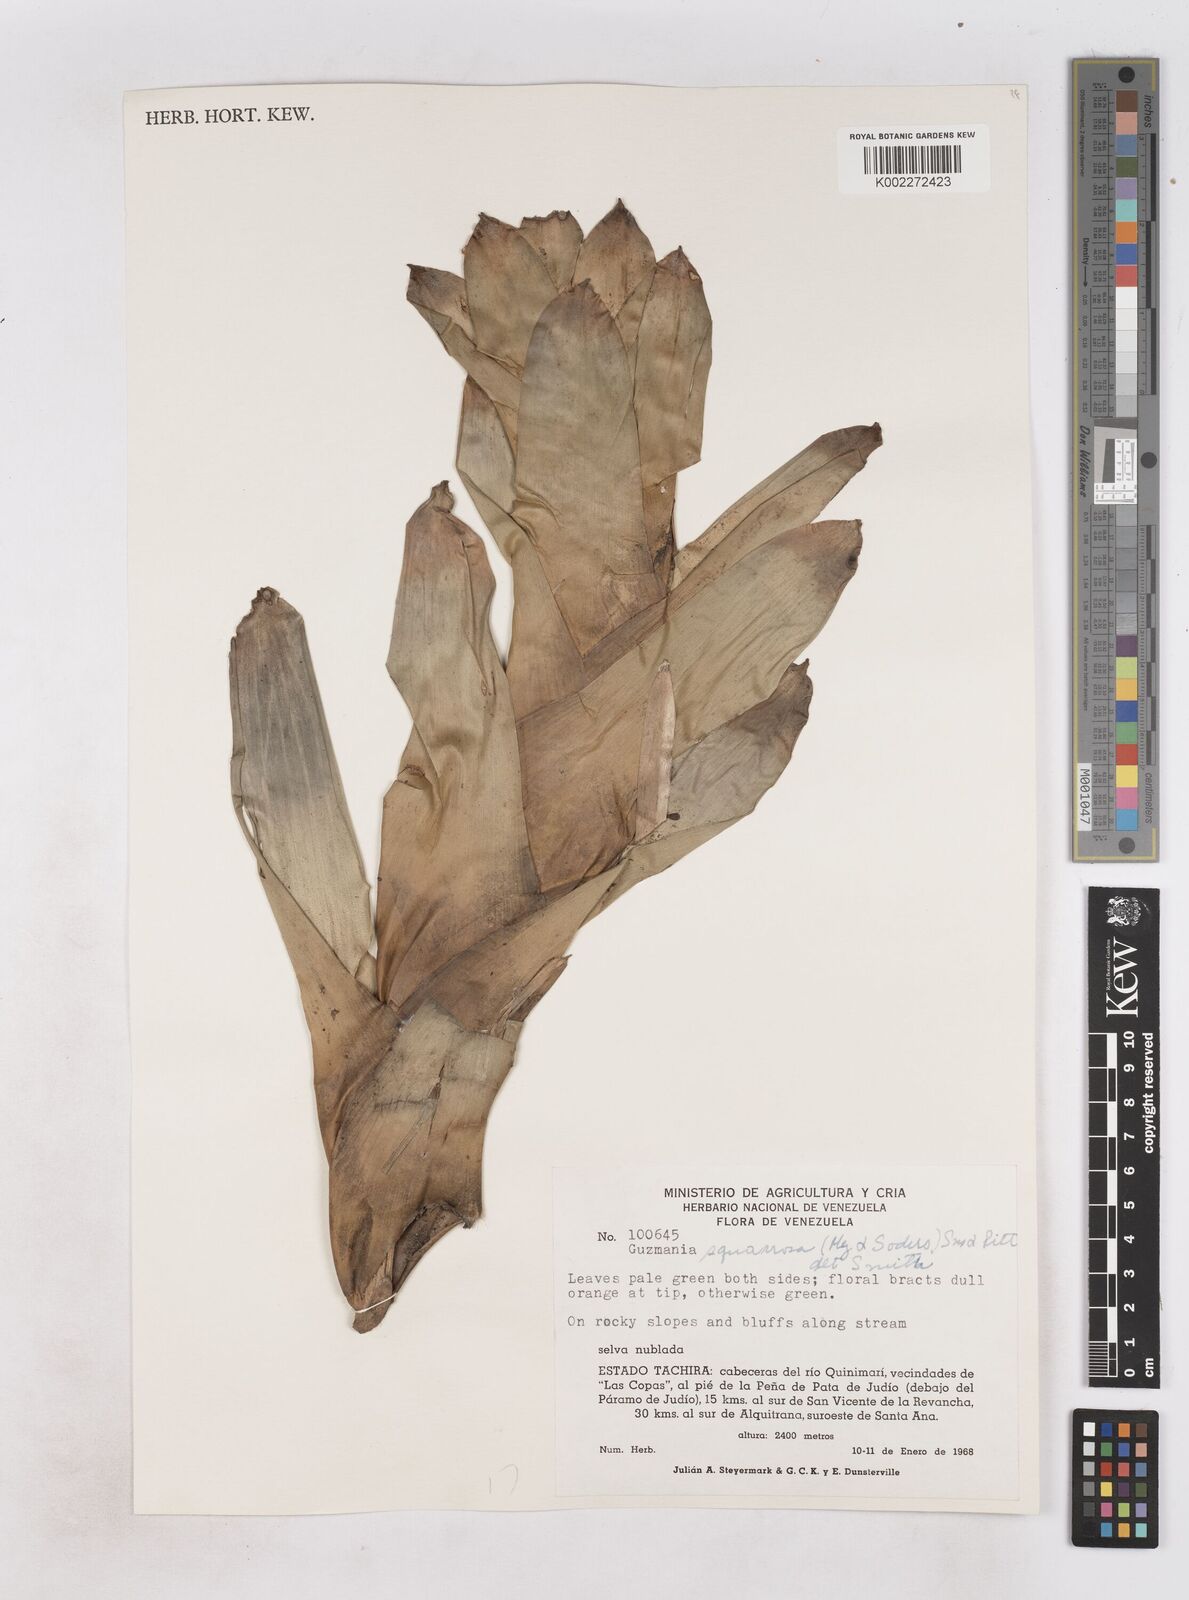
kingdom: Plantae
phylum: Tracheophyta
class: Liliopsida
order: Poales
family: Bromeliaceae
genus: Guzmania
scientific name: Guzmania squarrosa
